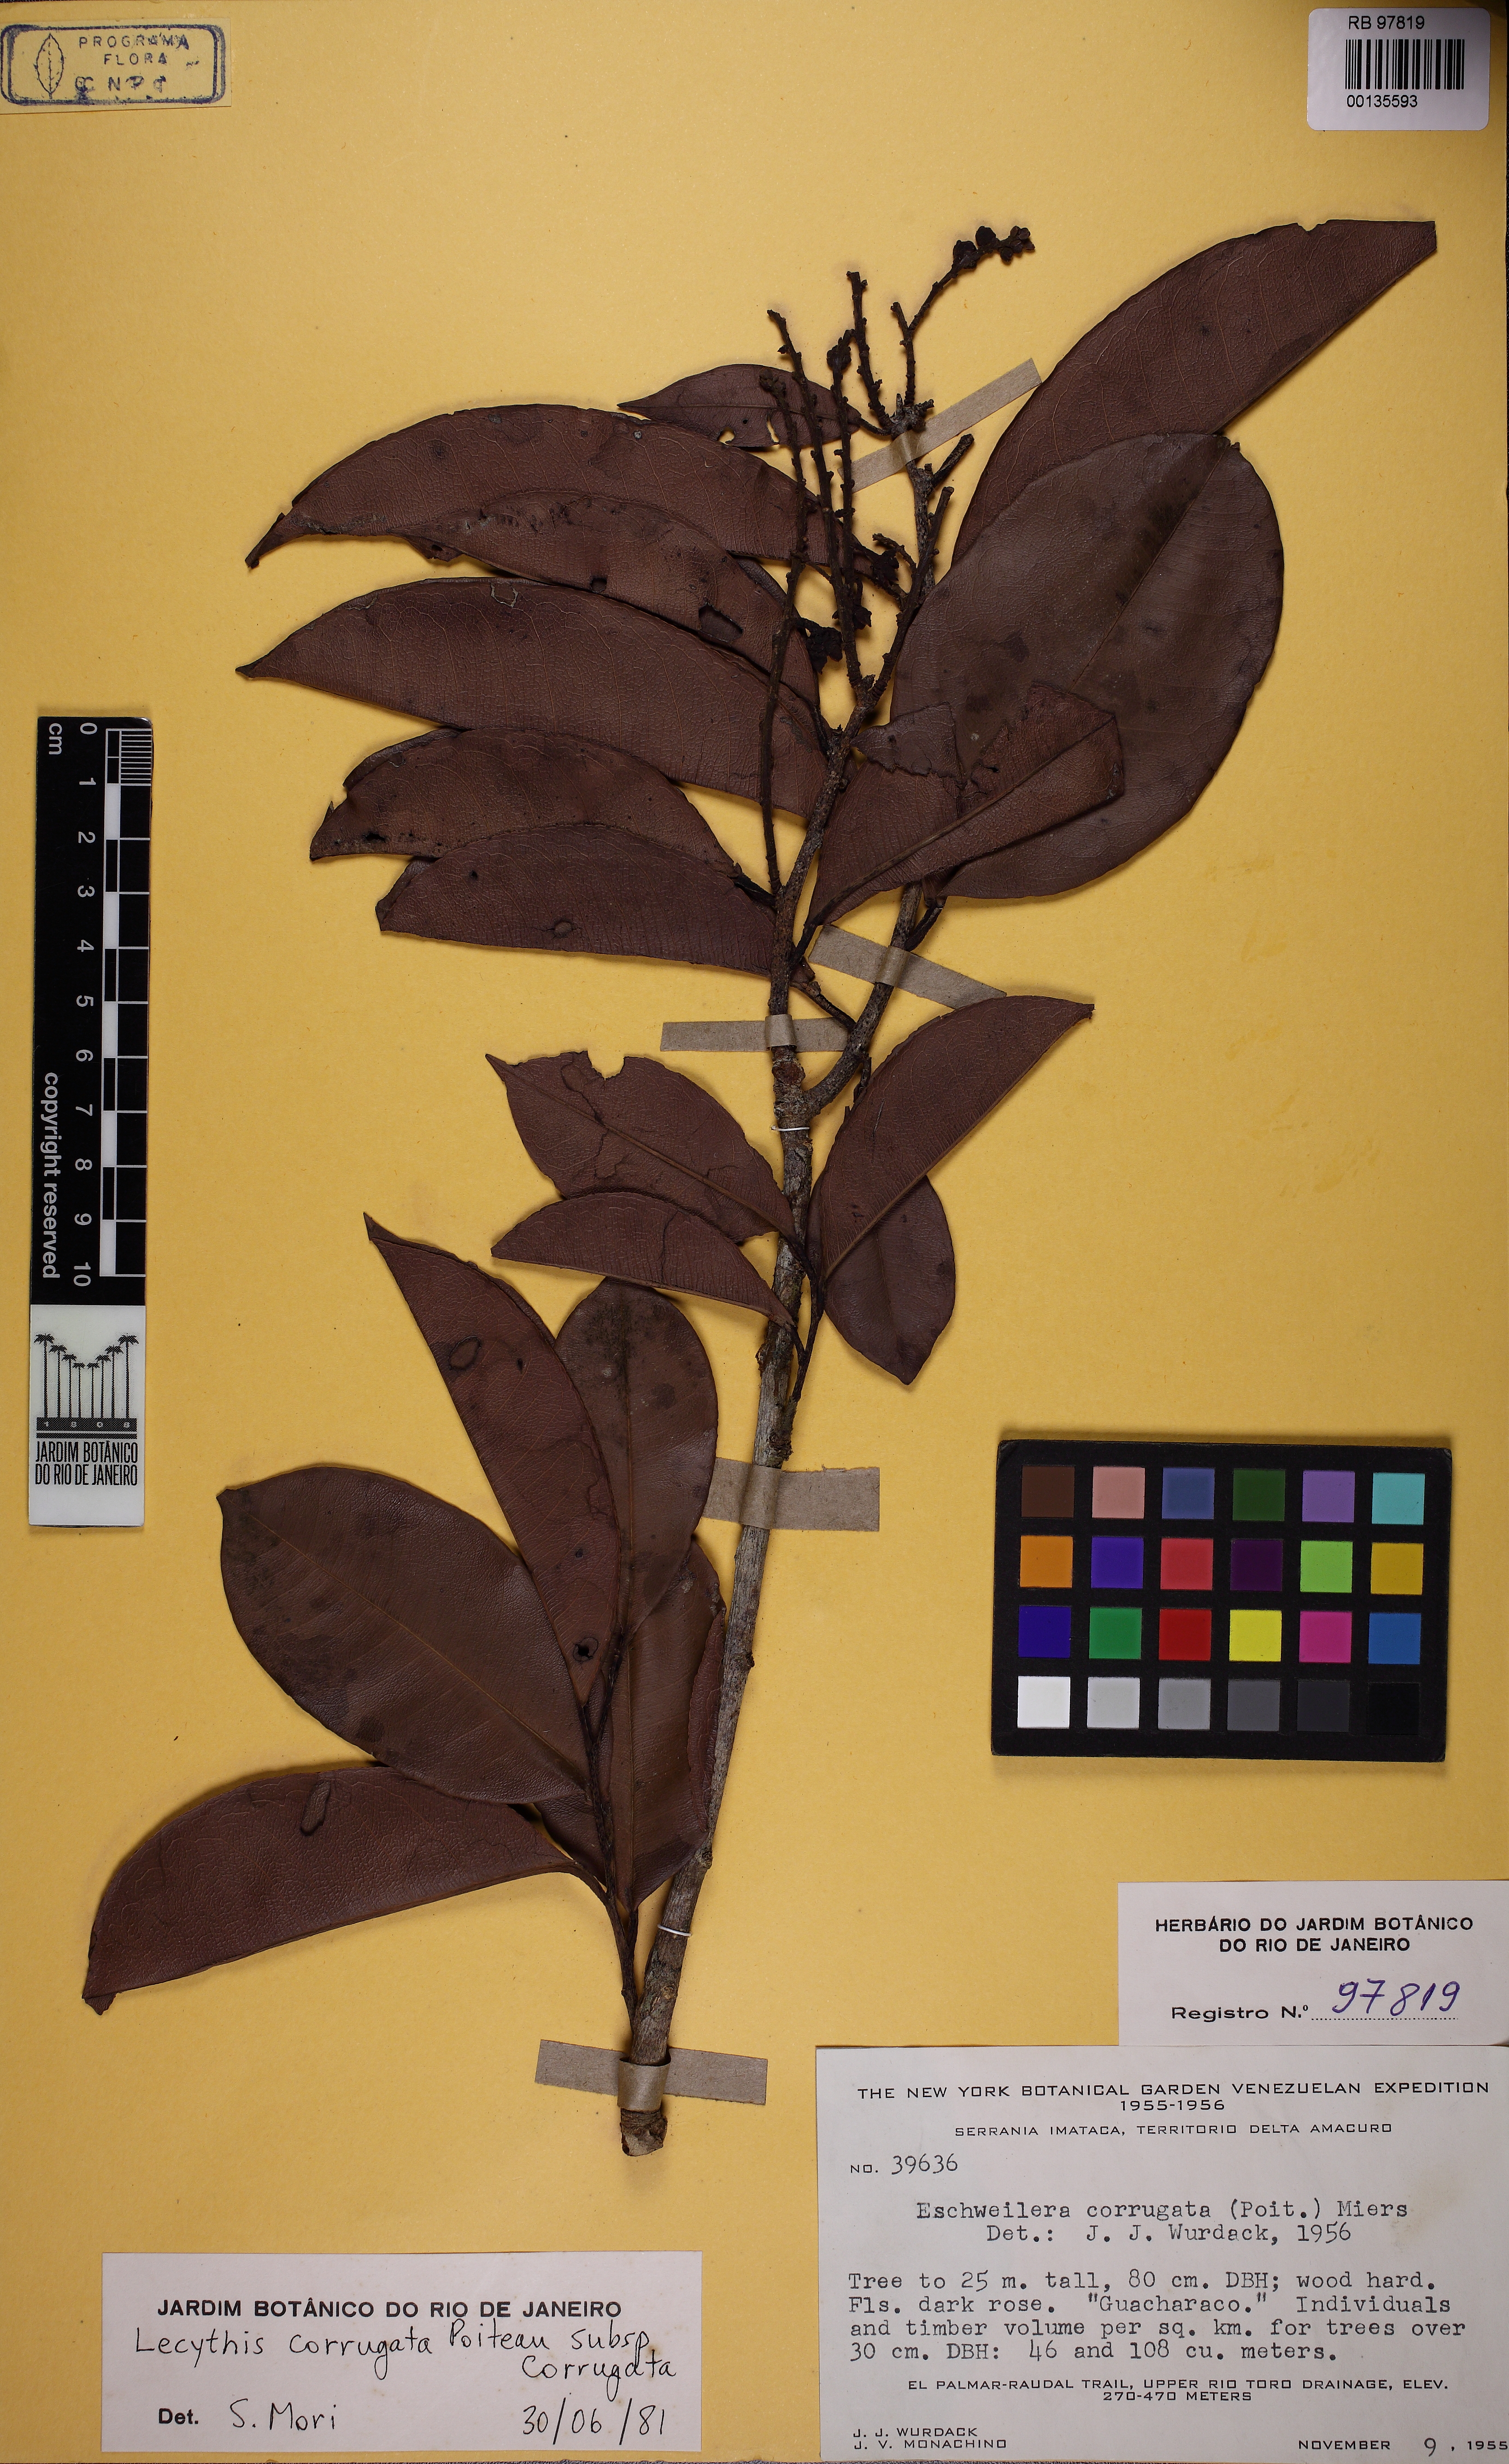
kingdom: Plantae
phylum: Tracheophyta
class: Magnoliopsida
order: Ericales
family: Lecythidaceae
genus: Lecythis
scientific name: Lecythis corrugata
